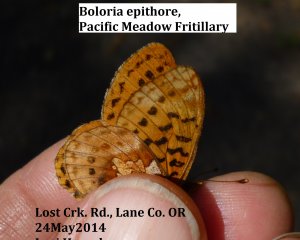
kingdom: Animalia
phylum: Arthropoda
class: Insecta
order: Lepidoptera
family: Nymphalidae
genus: Boloria
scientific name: Boloria epithore
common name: Pacific Fritillary
